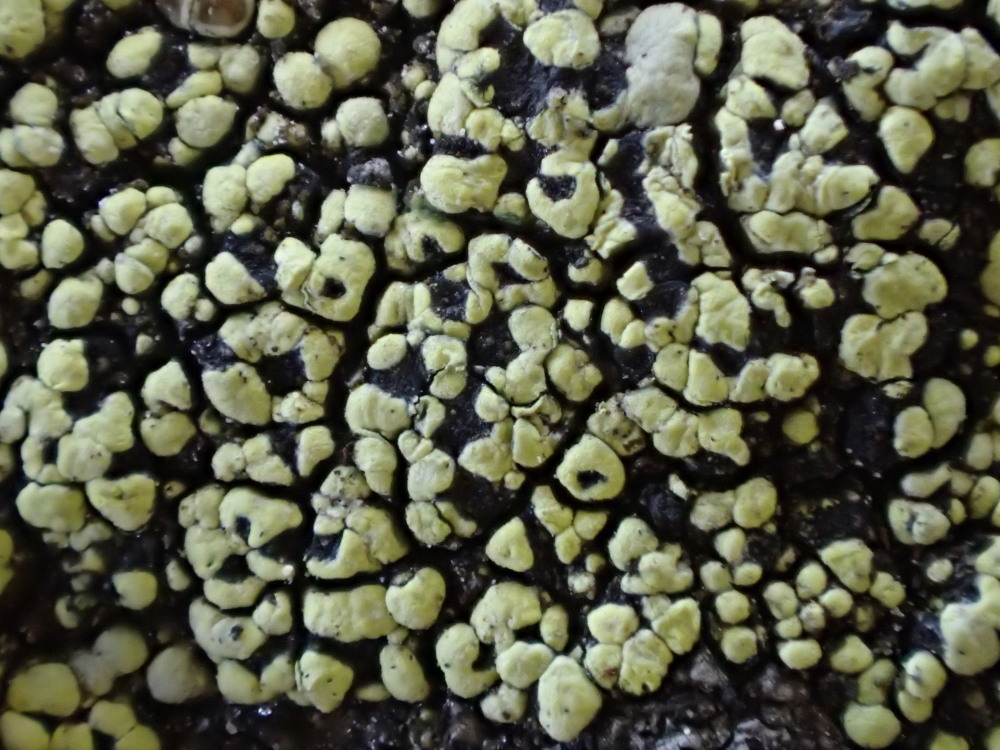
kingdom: Fungi
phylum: Ascomycota
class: Lecanoromycetes
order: Rhizocarpales
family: Rhizocarpaceae
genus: Rhizocarpon
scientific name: Rhizocarpon lecanorinum
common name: krave-landkortlav
